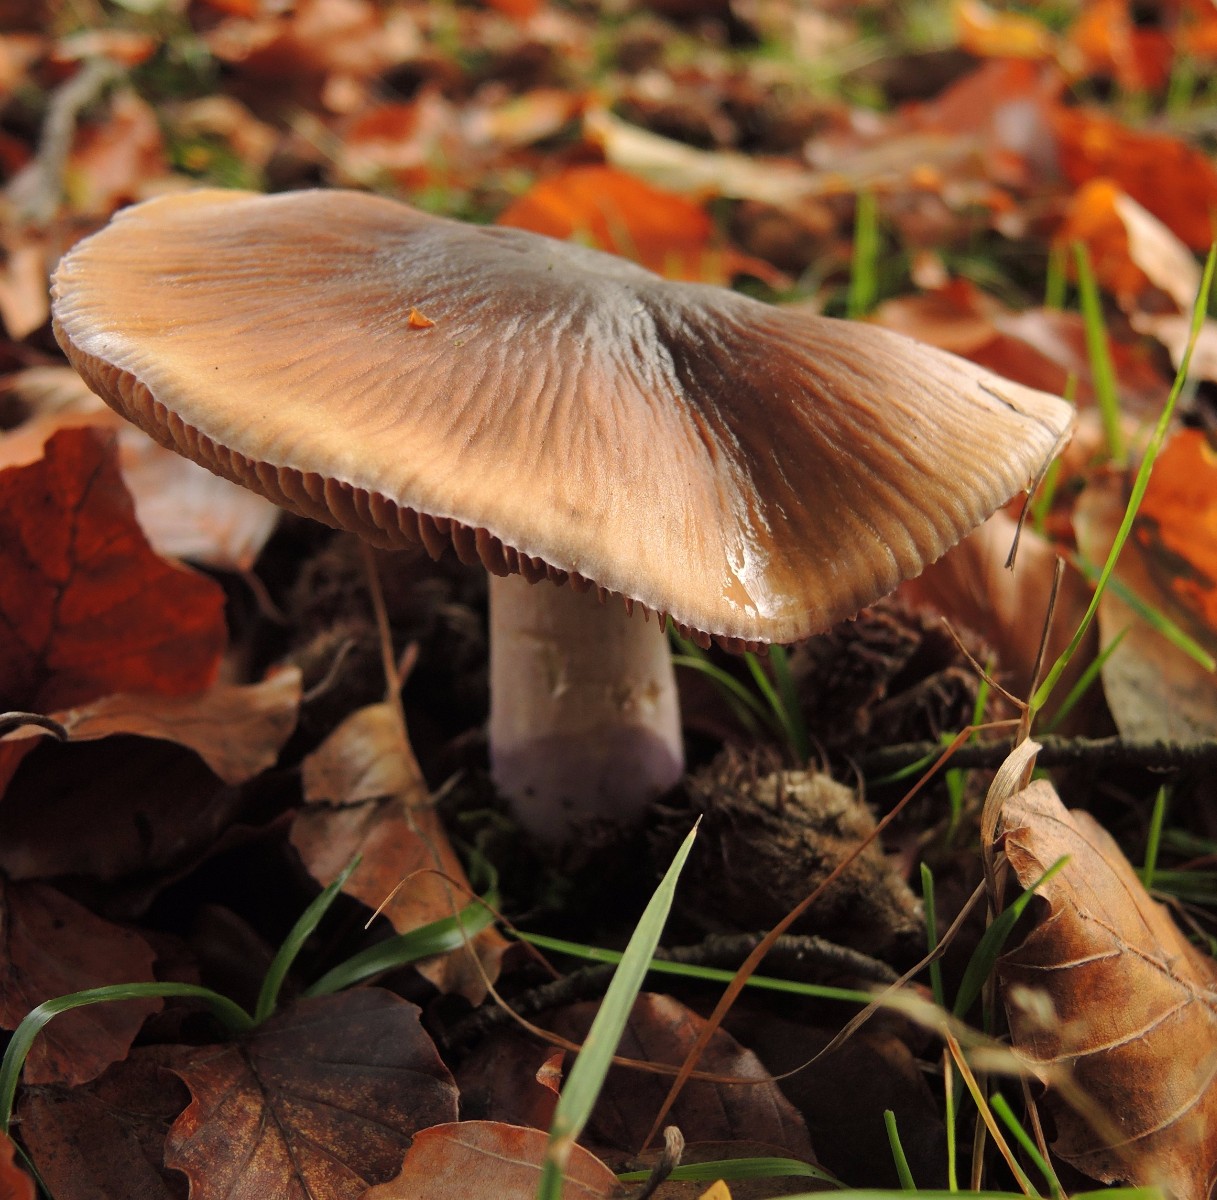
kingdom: Fungi
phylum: Basidiomycota
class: Agaricomycetes
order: Agaricales
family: Cortinariaceae
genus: Cortinarius
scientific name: Cortinarius elatior
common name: høj slørhat
